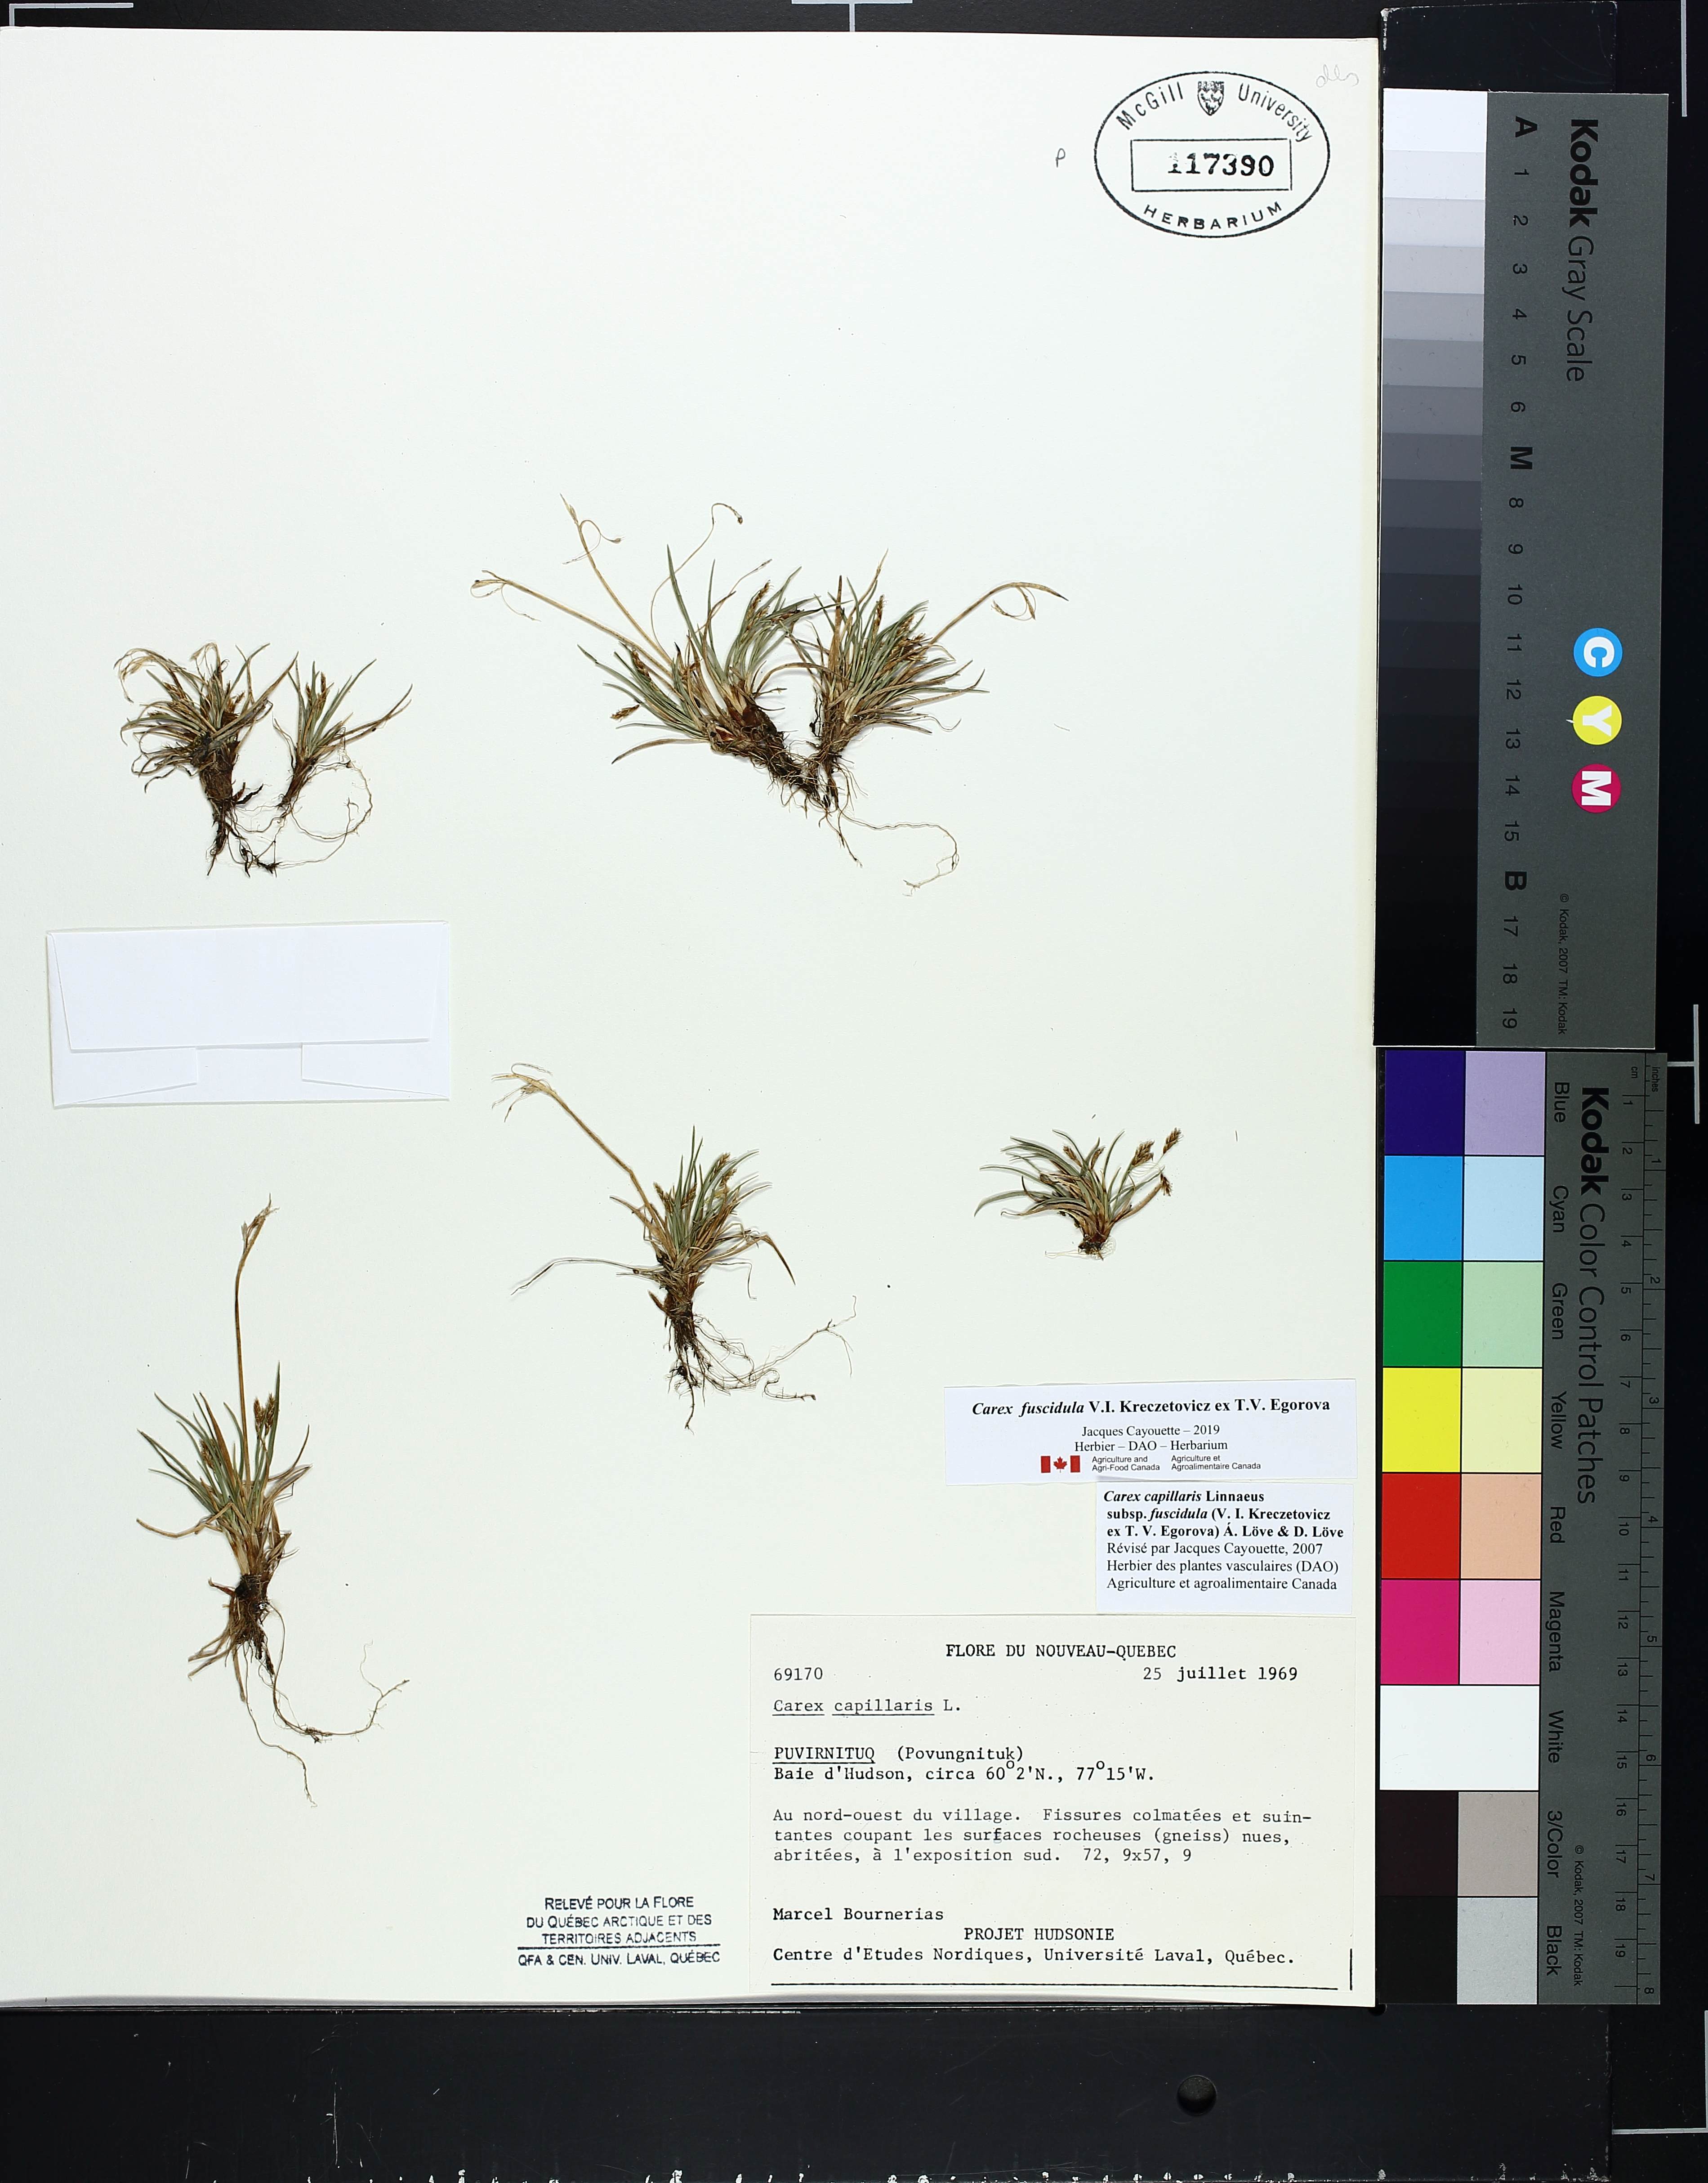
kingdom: Plantae
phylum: Tracheophyta
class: Liliopsida
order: Poales
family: Cyperaceae
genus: Carex
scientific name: Carex capillaris
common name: Hair sedge
